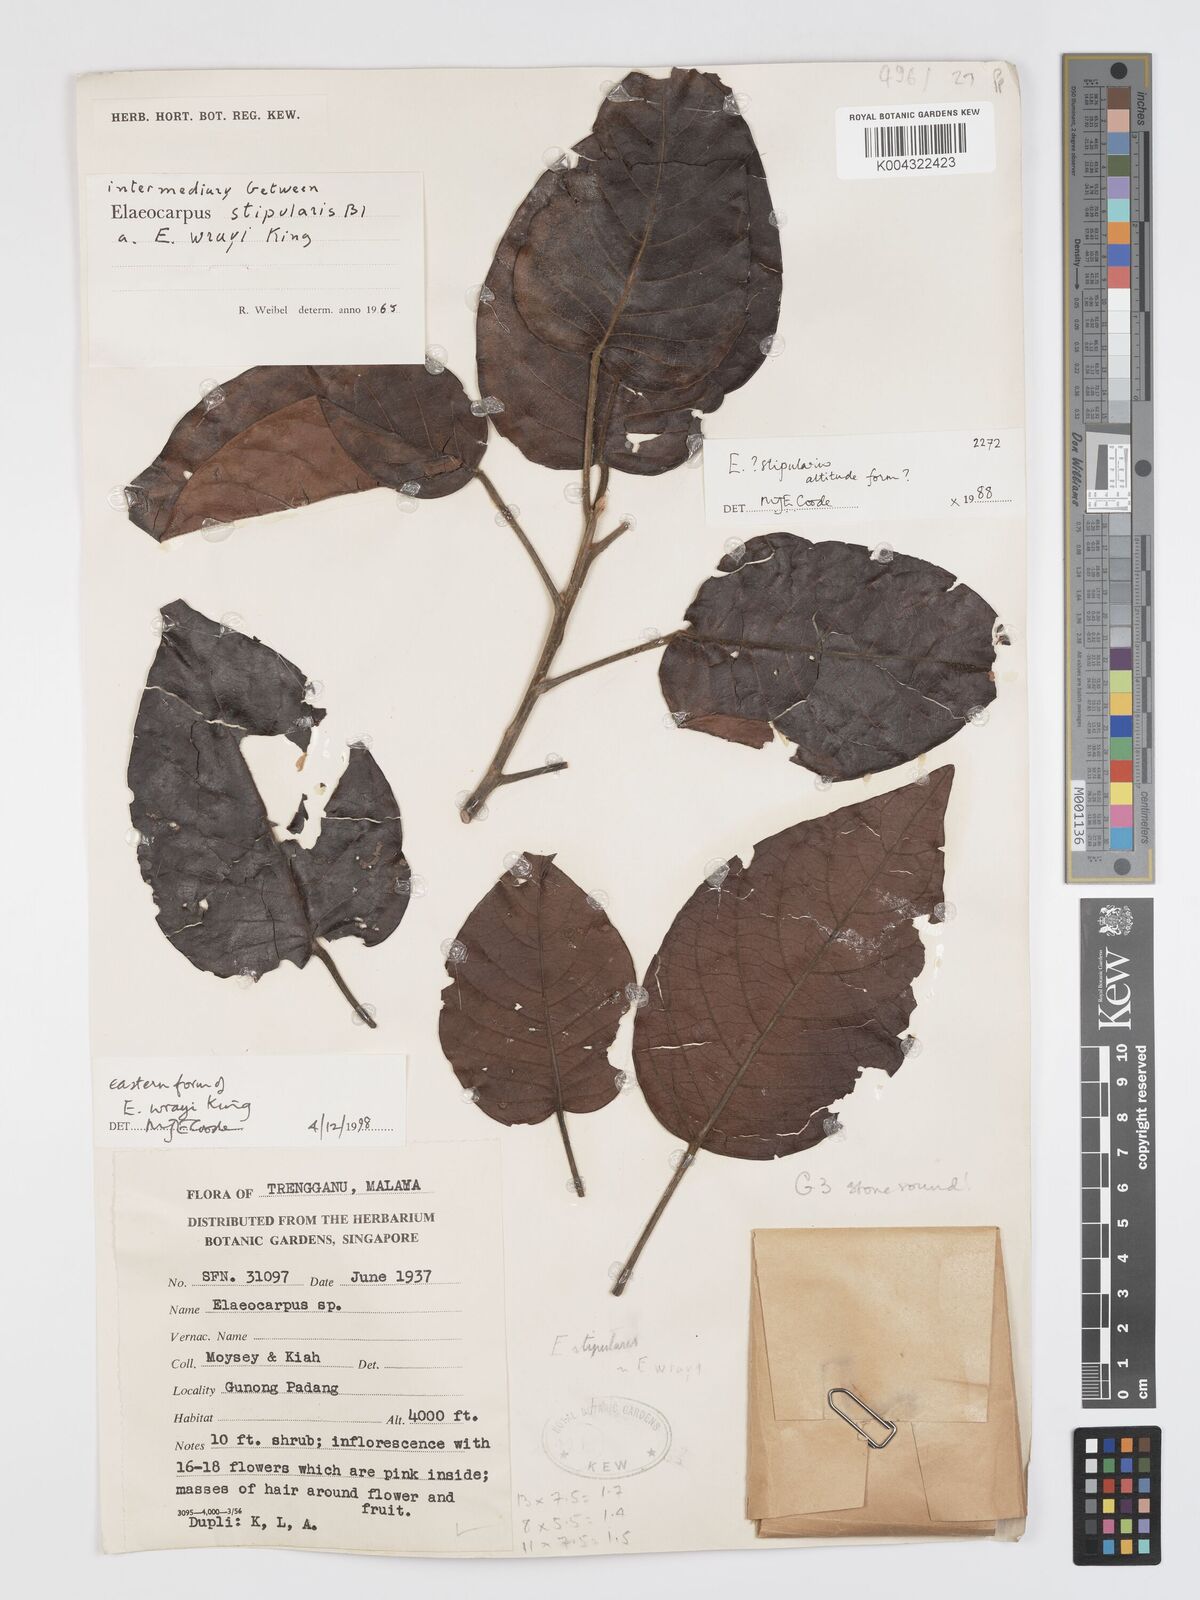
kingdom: Plantae
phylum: Tracheophyta
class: Magnoliopsida
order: Oxalidales
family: Elaeocarpaceae
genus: Elaeocarpus
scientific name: Elaeocarpus nitidus
